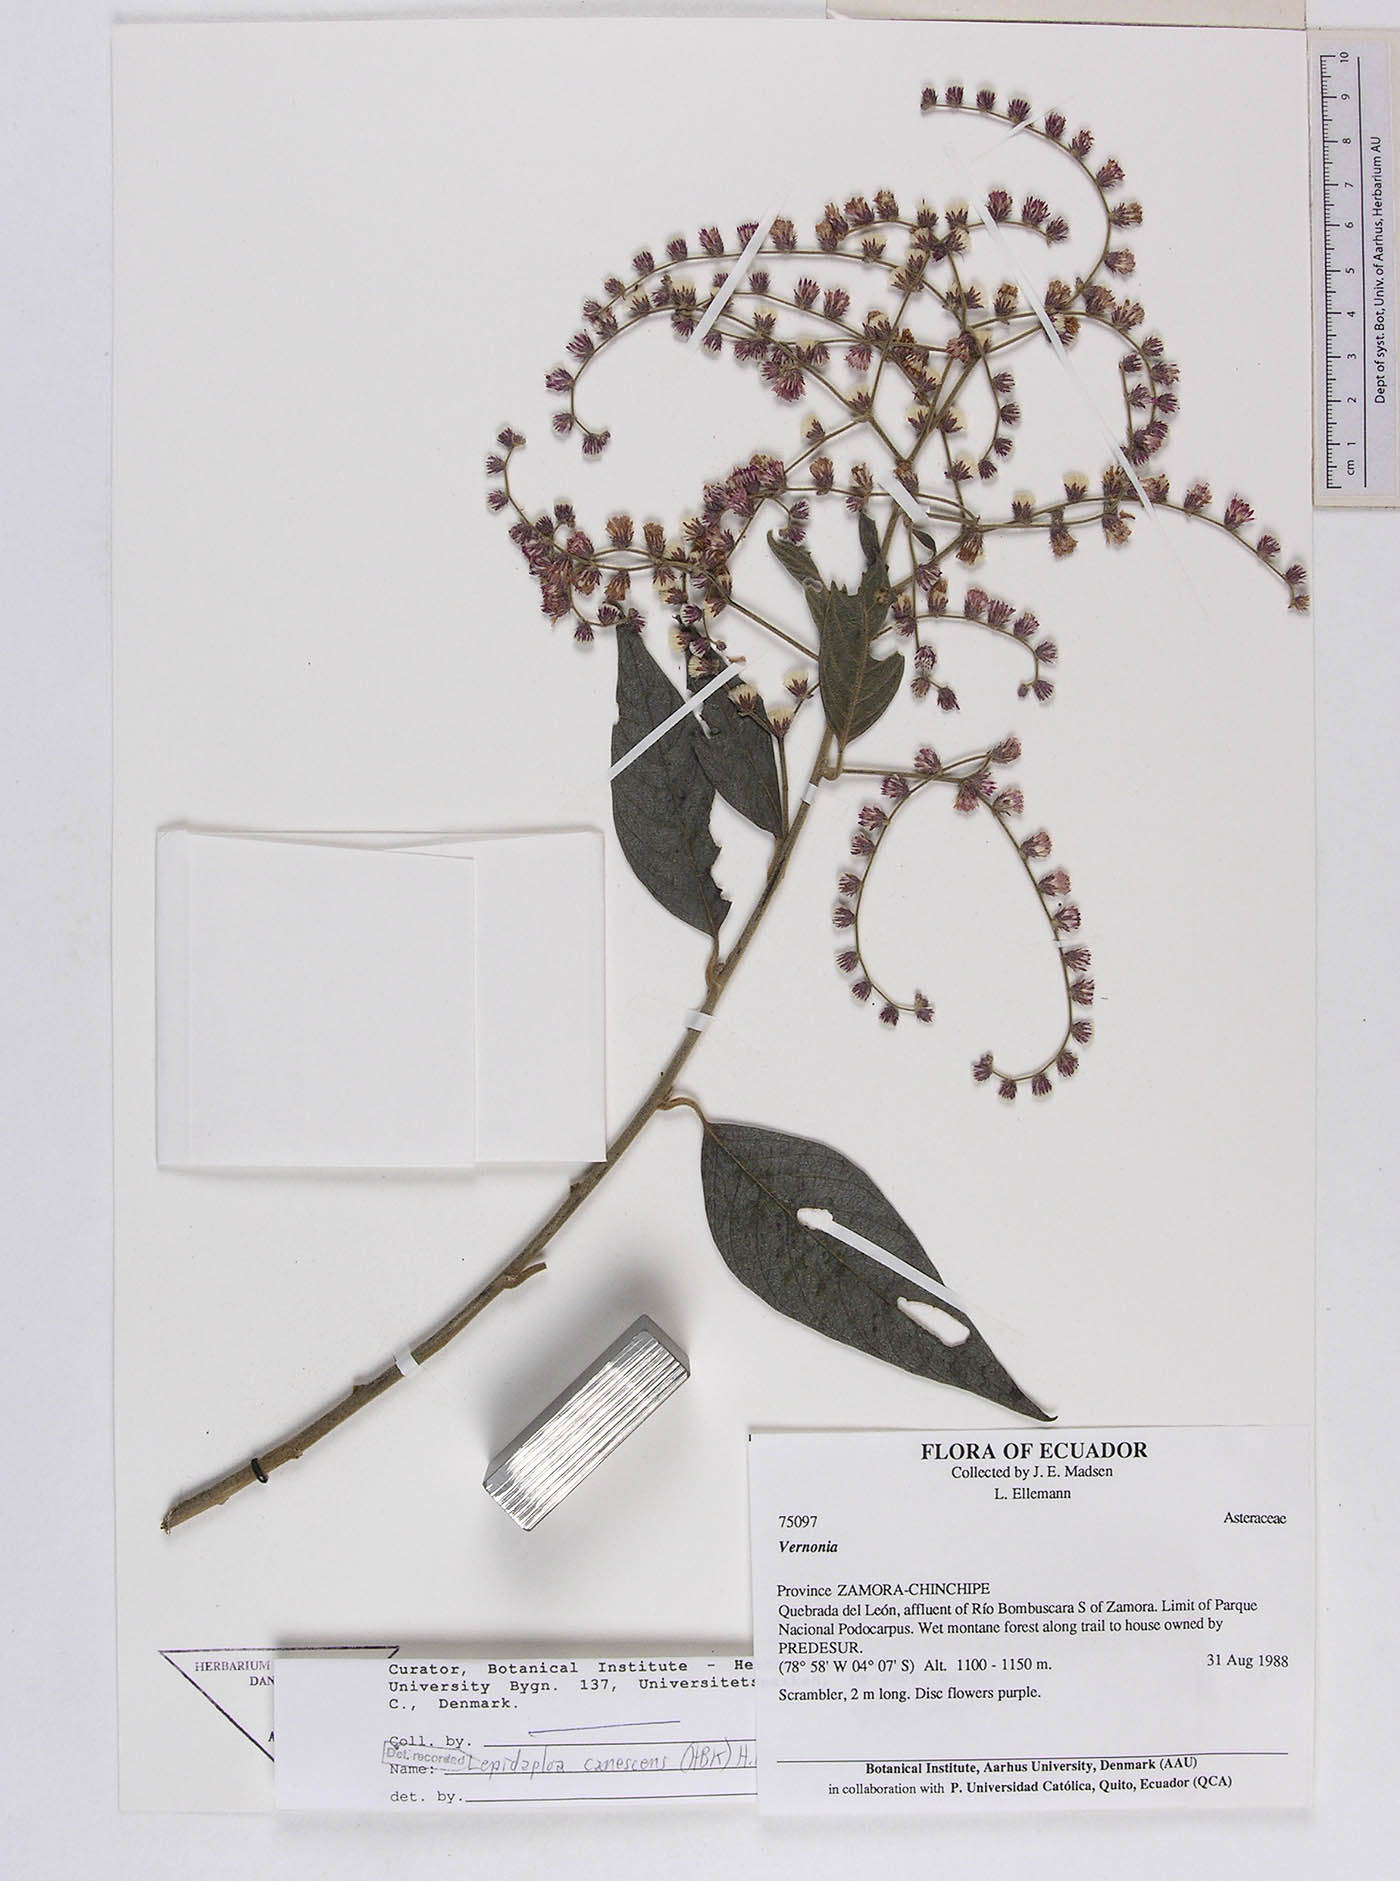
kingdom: Plantae
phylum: Tracheophyta
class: Magnoliopsida
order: Asterales
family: Asteraceae
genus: Lepidaploa
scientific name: Lepidaploa canescens
